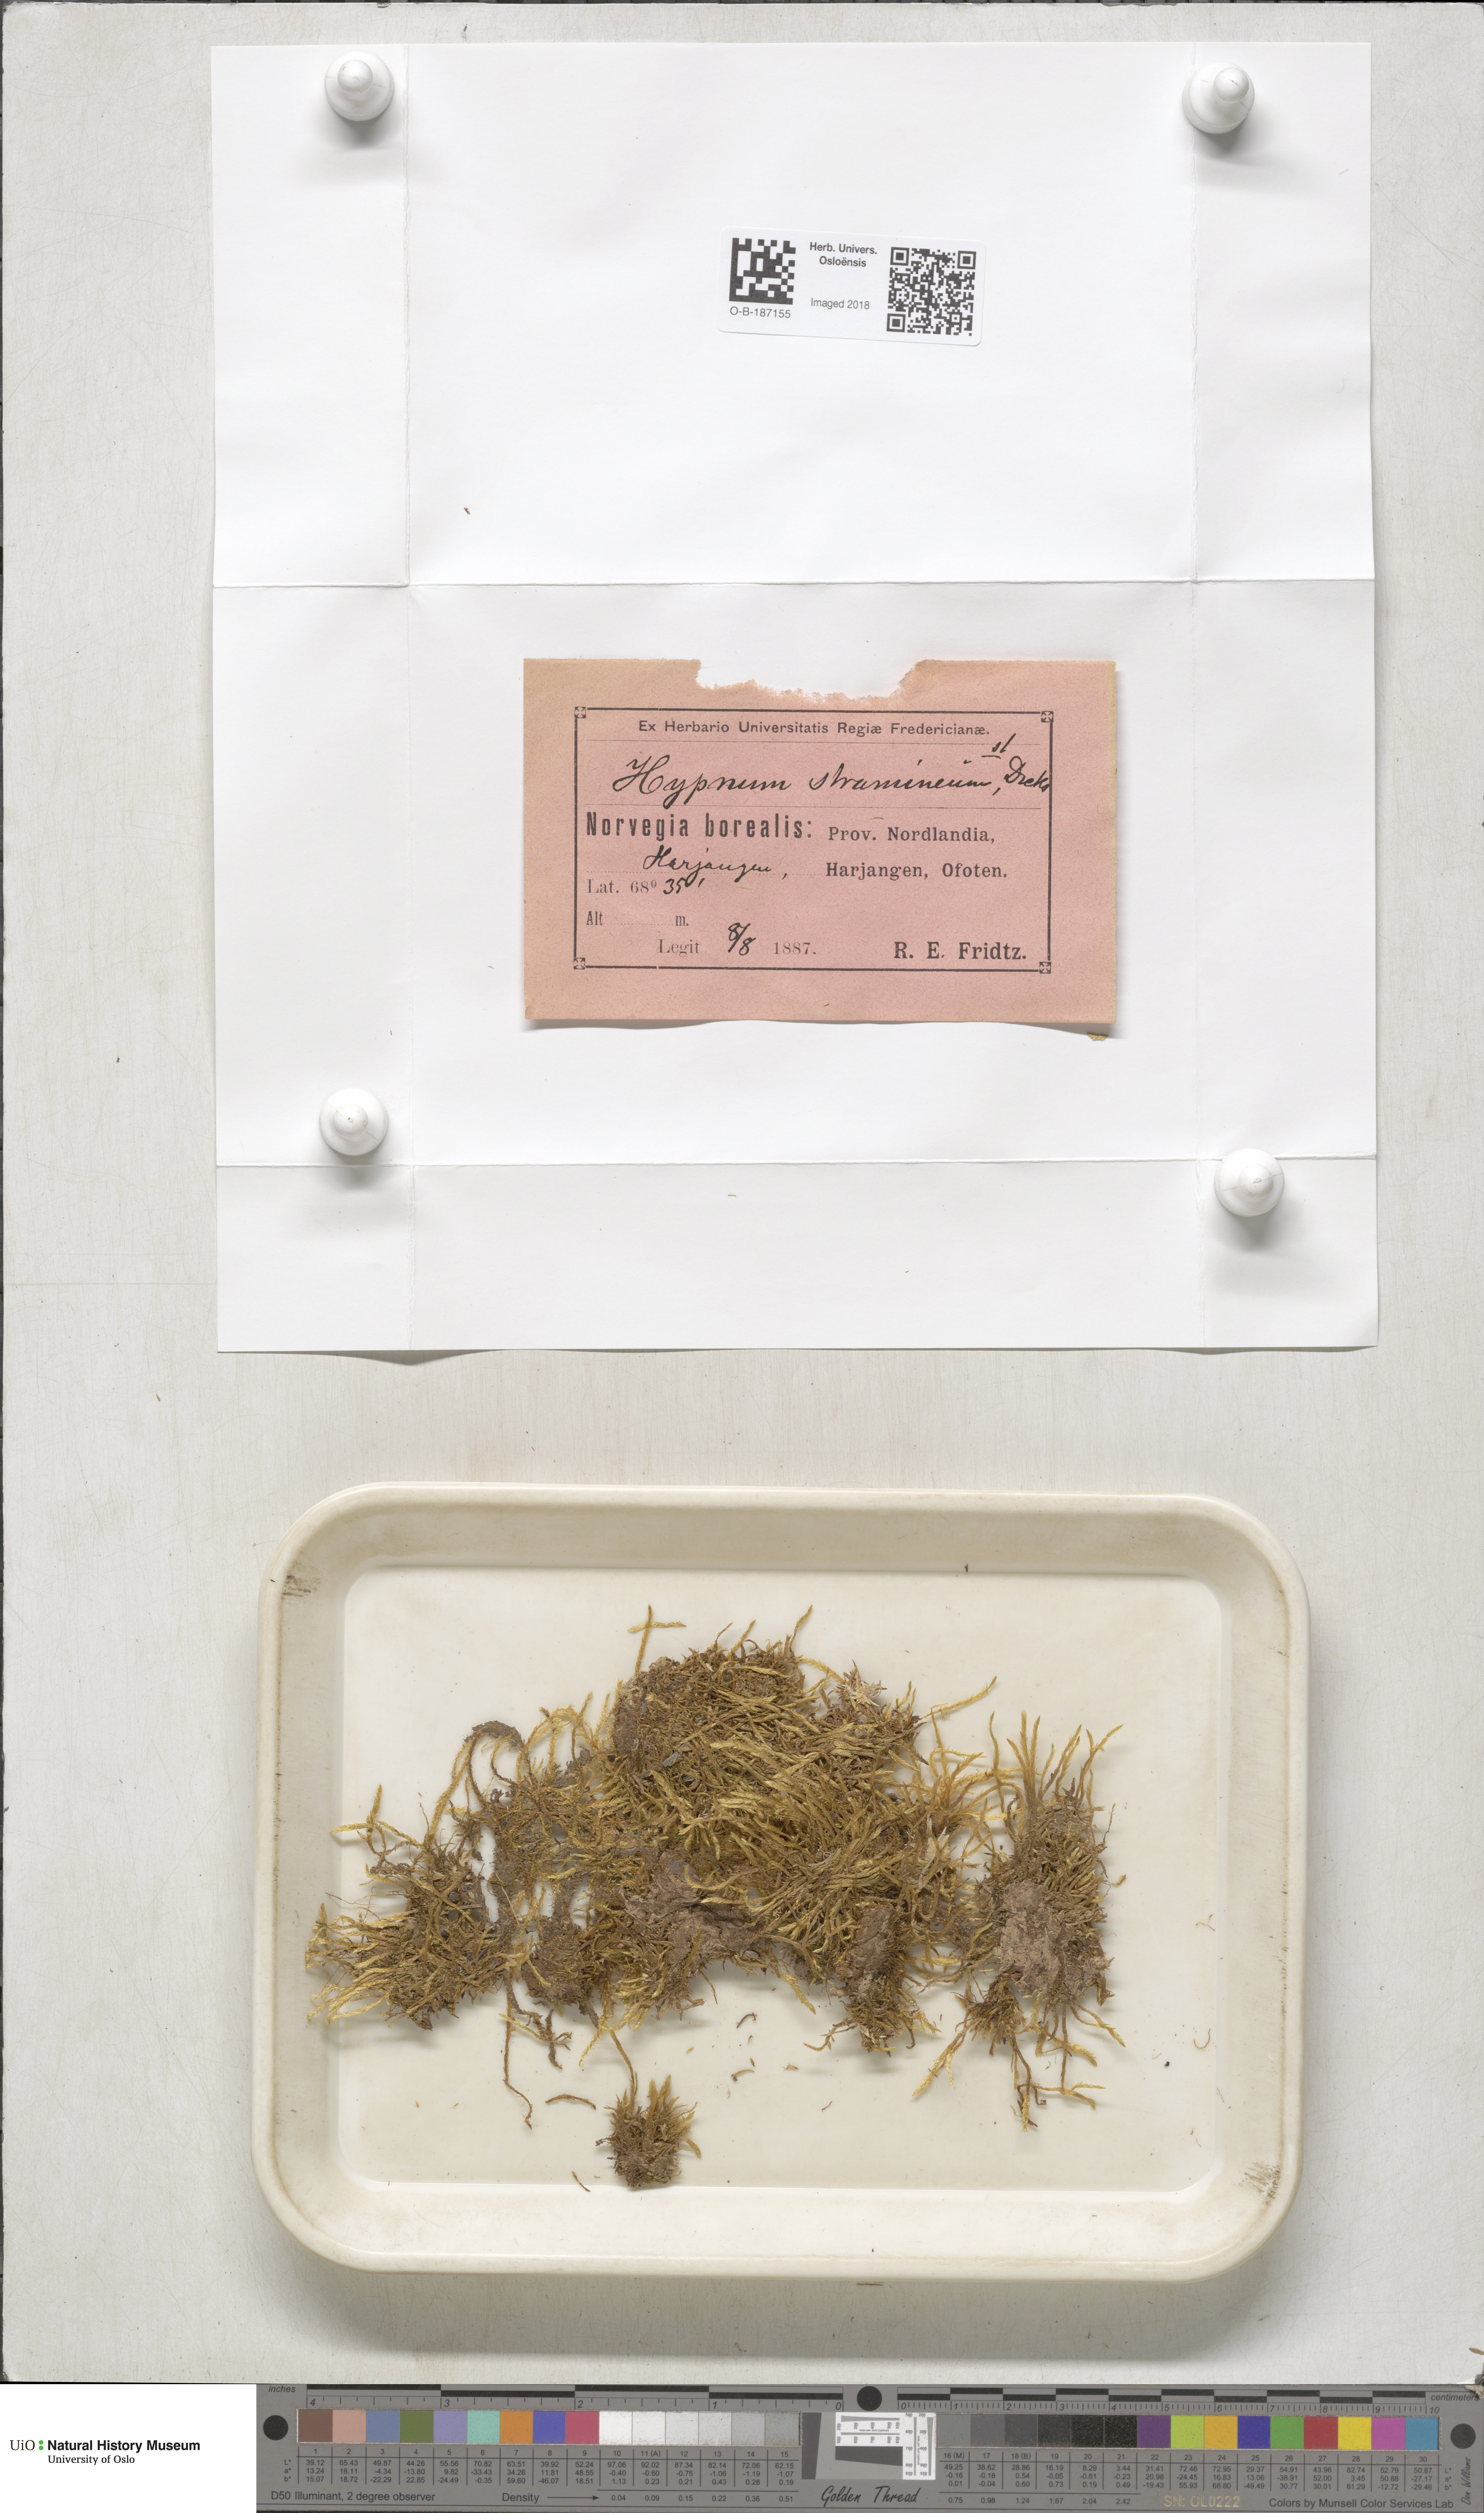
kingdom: Plantae
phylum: Bryophyta
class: Bryopsida
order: Hypnales
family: Calliergonaceae
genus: Straminergon
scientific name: Straminergon stramineum
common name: Straw moss
